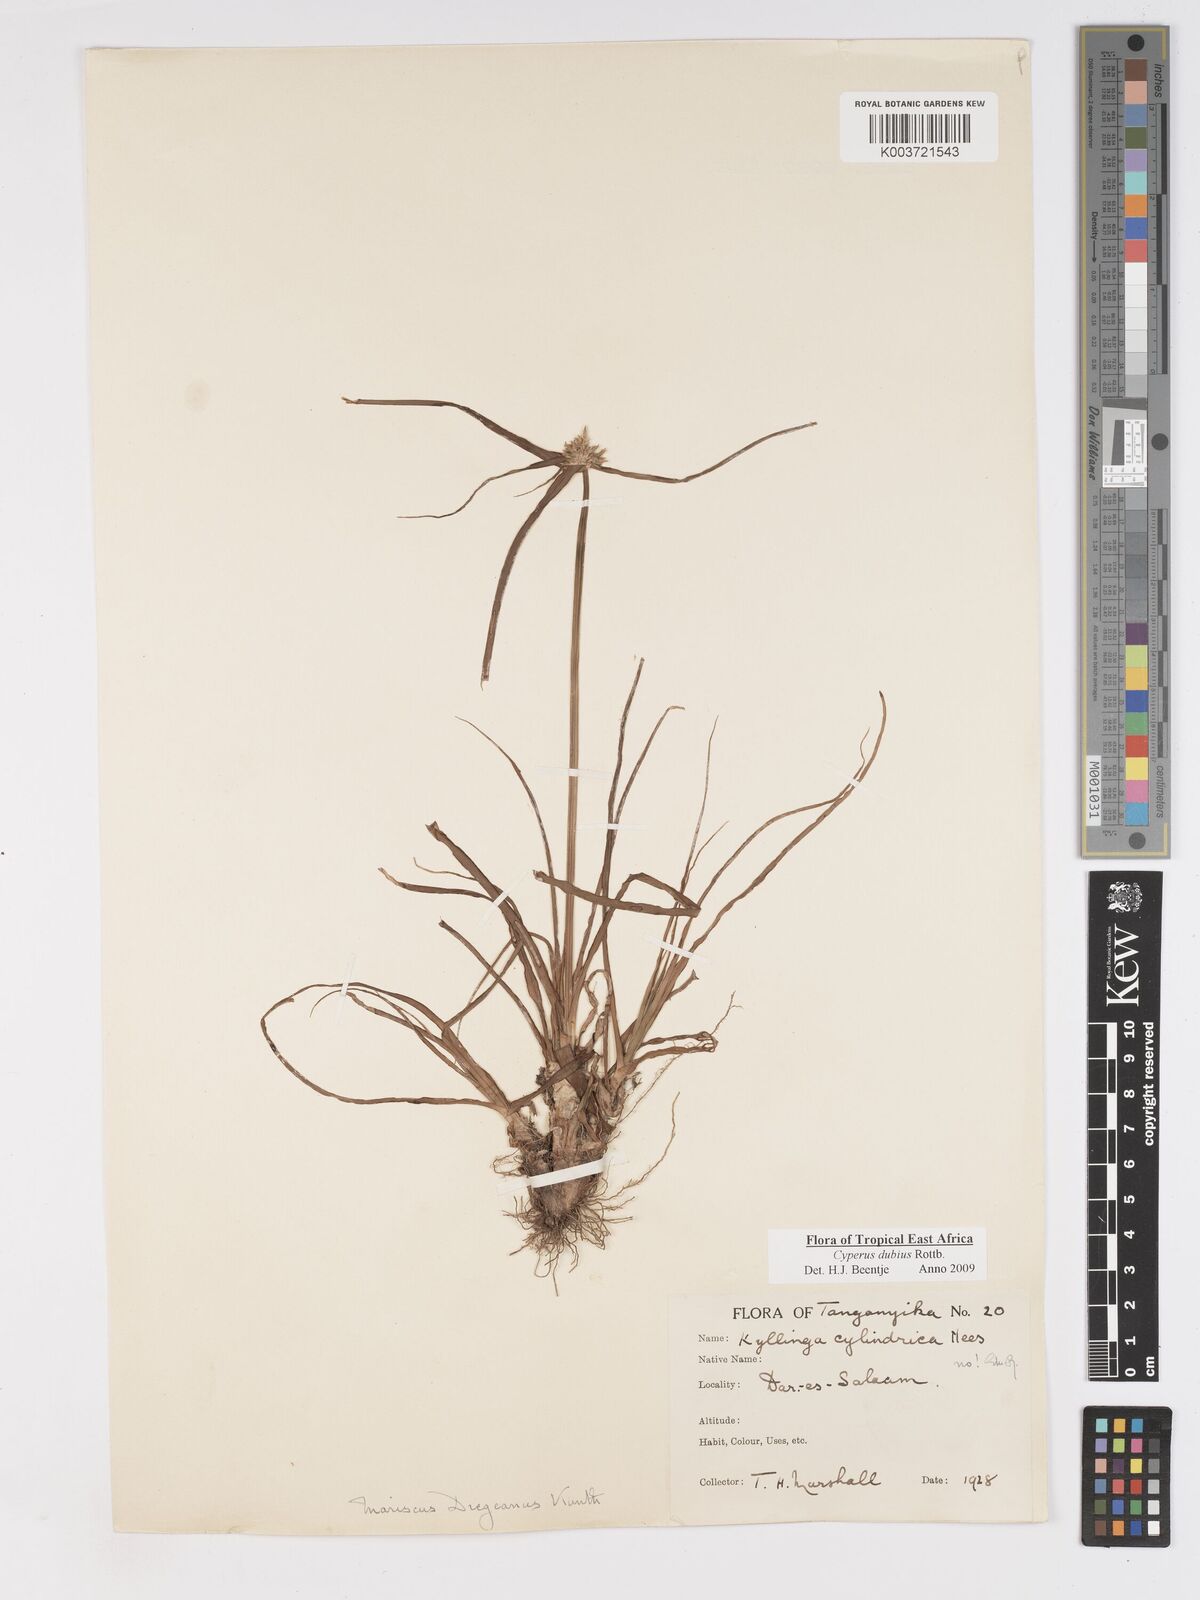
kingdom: Plantae
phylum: Tracheophyta
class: Liliopsida
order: Poales
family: Cyperaceae
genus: Cyperus
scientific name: Cyperus dubius
